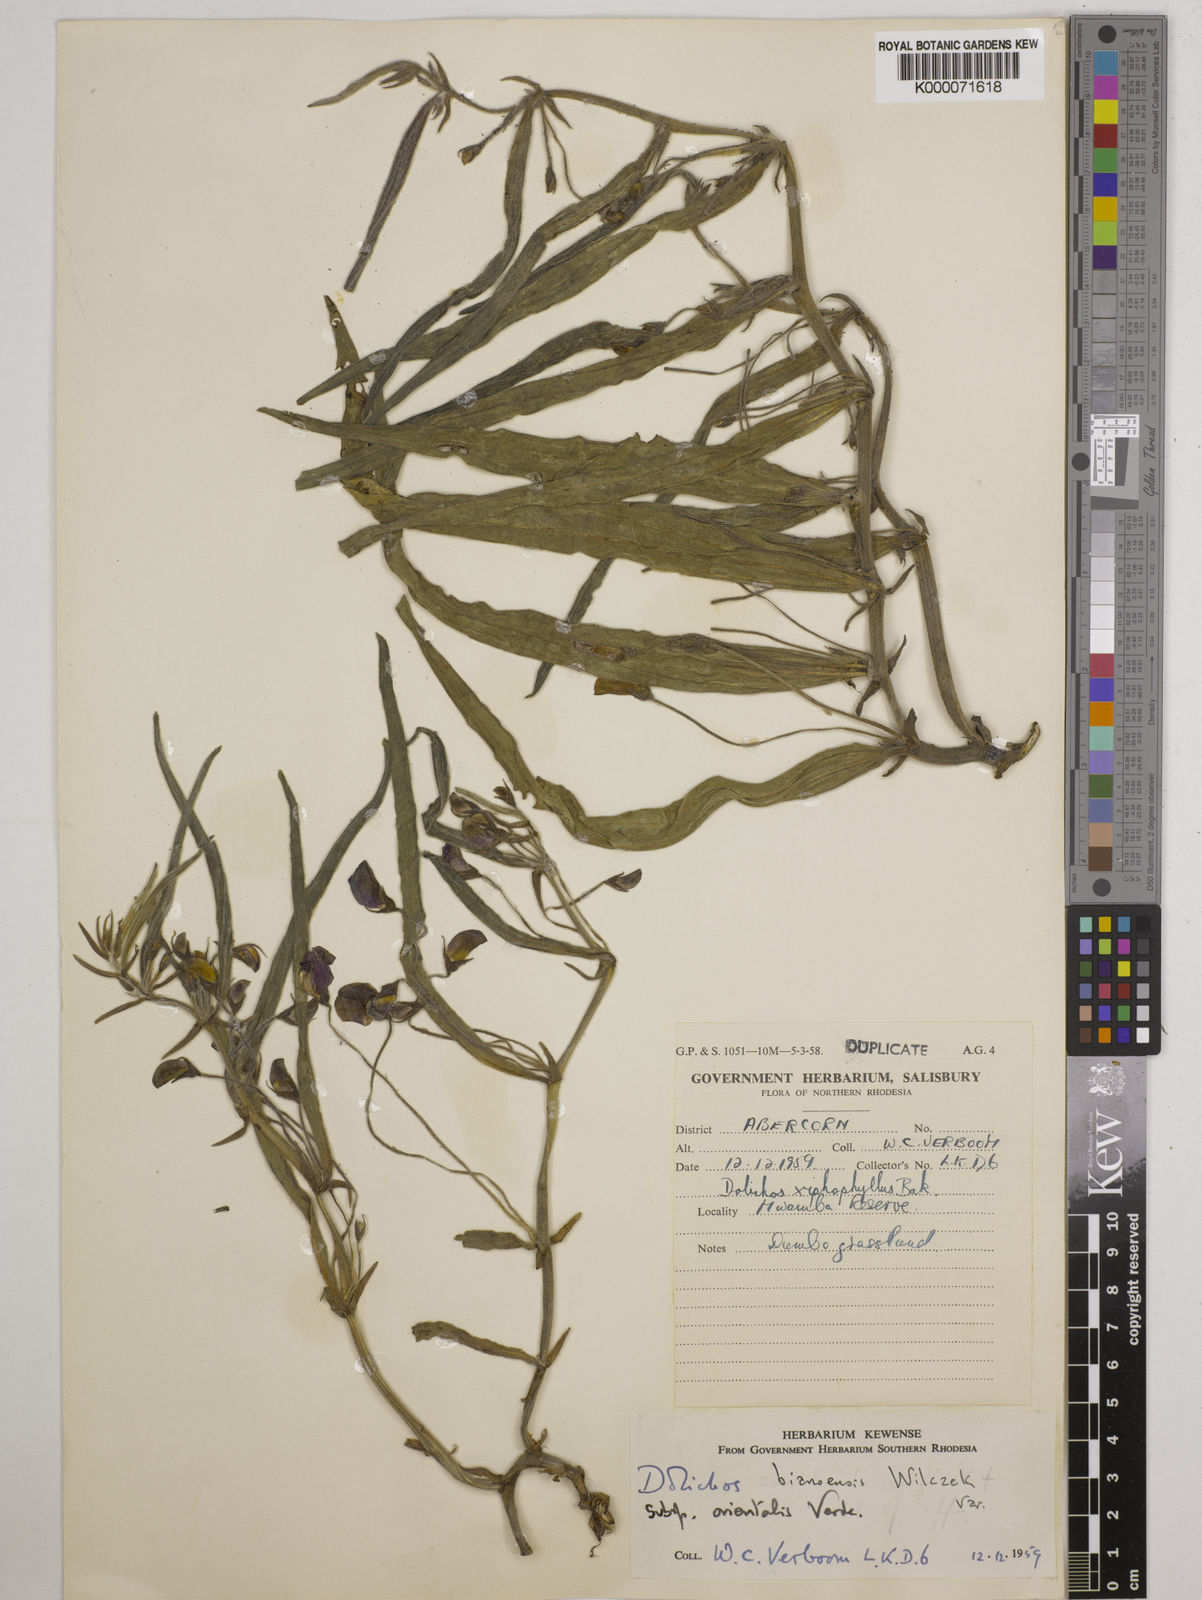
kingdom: Plantae
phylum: Tracheophyta
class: Magnoliopsida
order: Fabales
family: Fabaceae
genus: Dolichos
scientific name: Dolichos bianoensis
